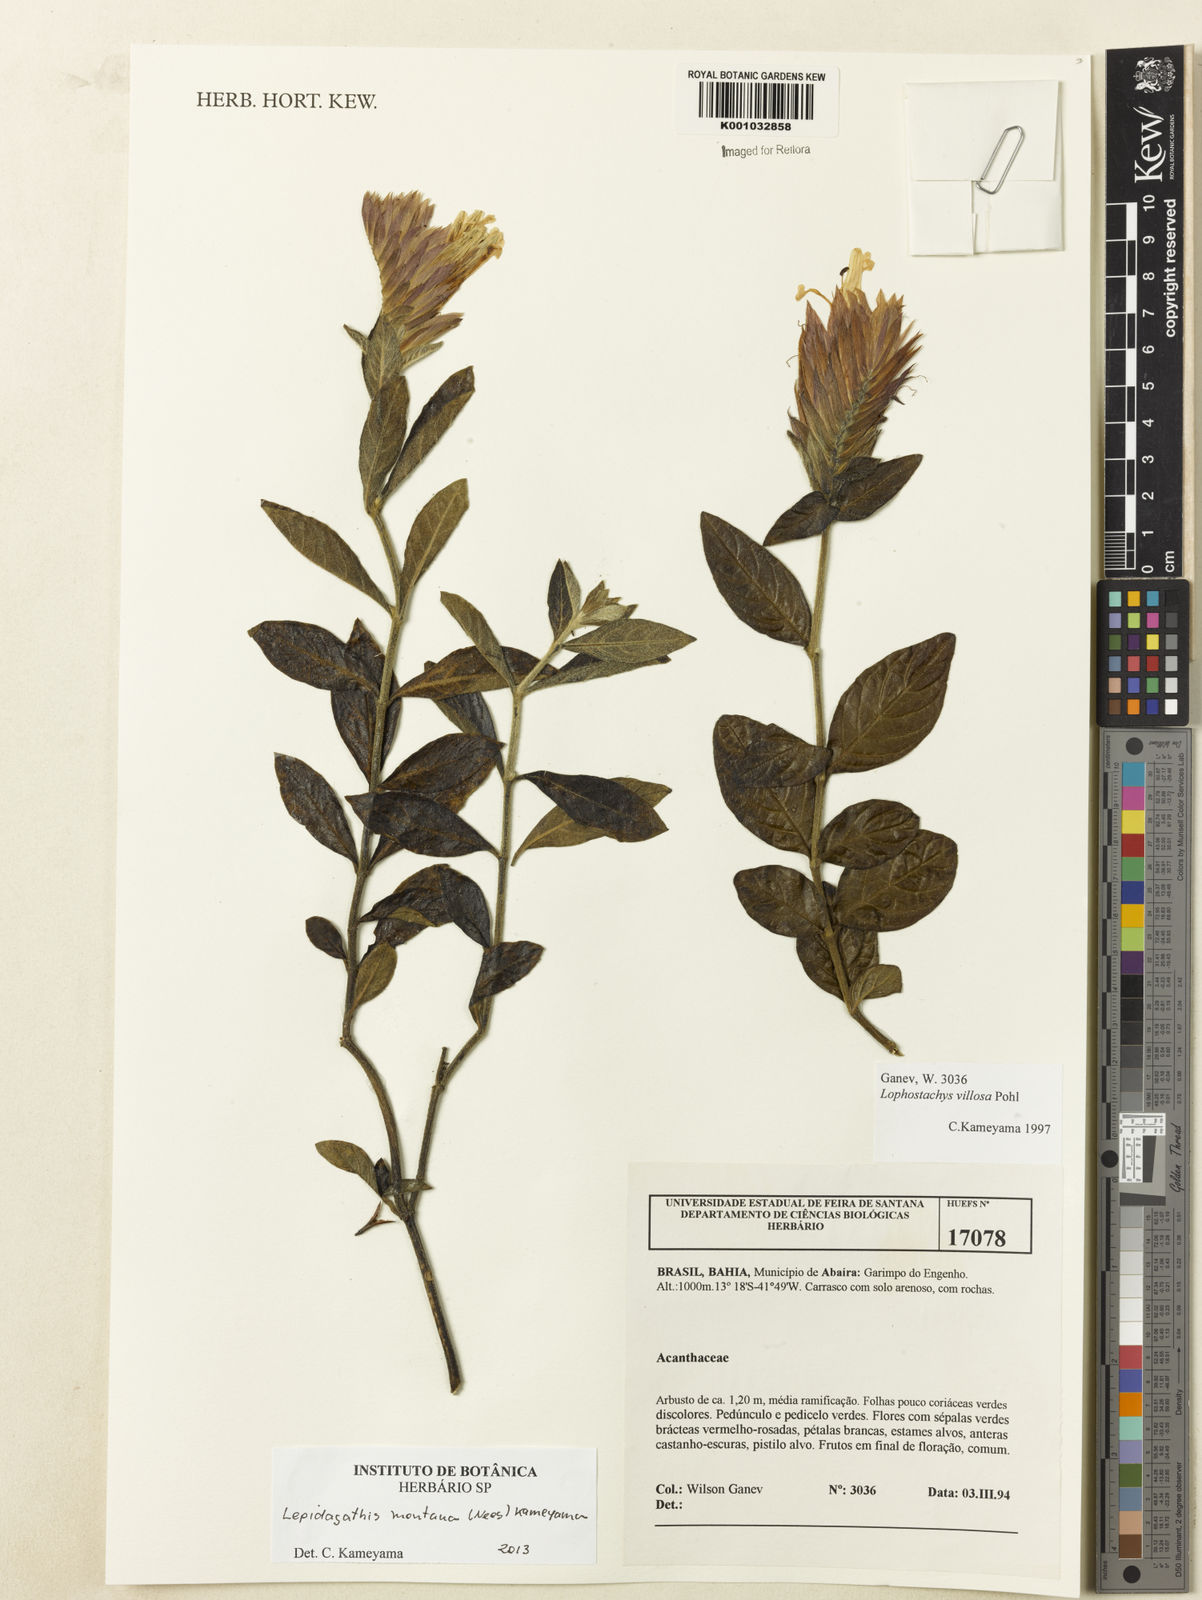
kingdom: Plantae
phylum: Tracheophyta
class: Magnoliopsida
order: Lamiales
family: Acanthaceae
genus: Lepidagathis
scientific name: Lepidagathis montana
